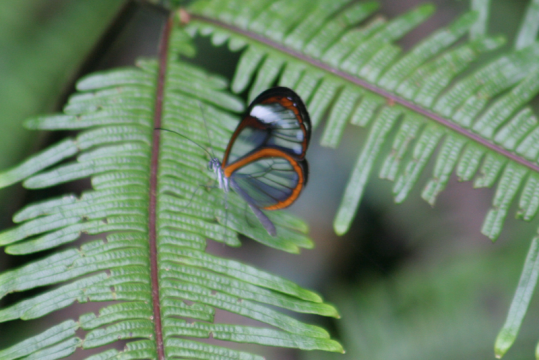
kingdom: Animalia
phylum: Arthropoda
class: Insecta
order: Lepidoptera
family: Nymphalidae
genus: Pseudoscada
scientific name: Pseudoscada timna
